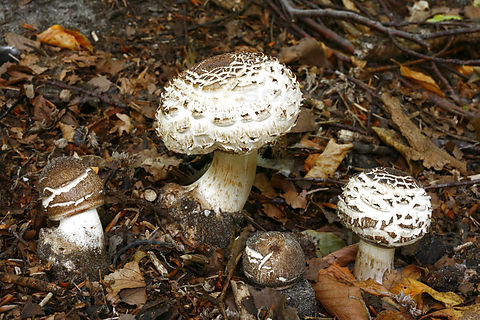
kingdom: Fungi
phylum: Basidiomycota
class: Agaricomycetes
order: Agaricales
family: Agaricaceae
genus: Chlorophyllum
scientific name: Chlorophyllum brunneum
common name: giftig rabarberhat
